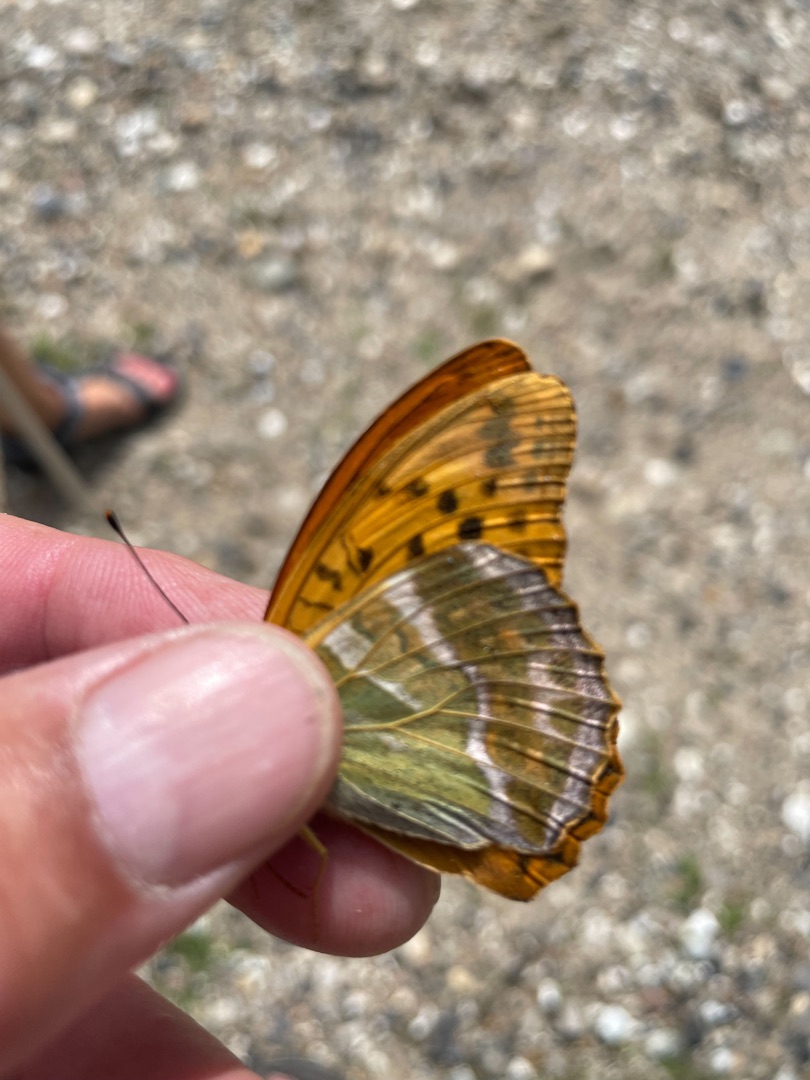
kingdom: Animalia
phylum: Arthropoda
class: Insecta
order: Lepidoptera
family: Nymphalidae
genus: Argynnis
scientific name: Argynnis paphia
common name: Kejserkåbe
